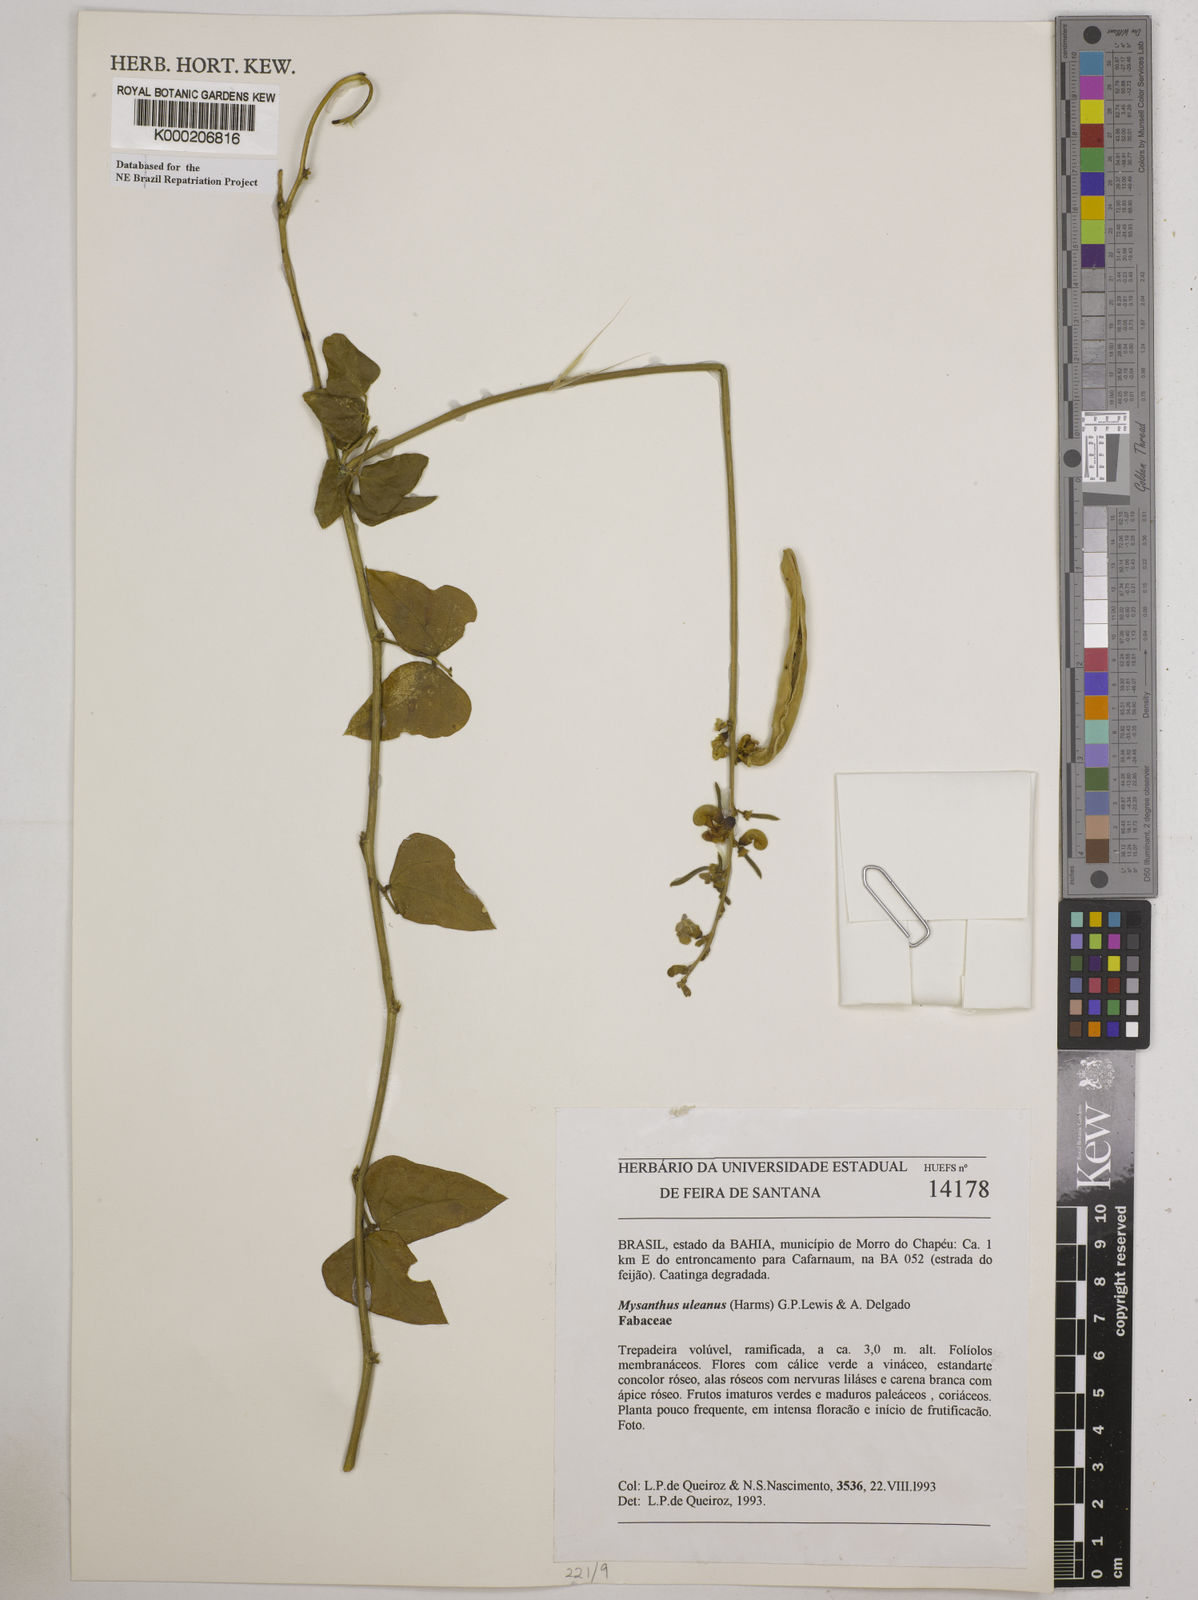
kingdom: Plantae
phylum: Tracheophyta
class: Magnoliopsida
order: Fabales
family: Fabaceae
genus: Mysanthus
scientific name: Mysanthus uleanus
